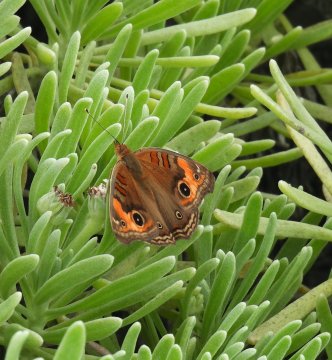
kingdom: Animalia
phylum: Arthropoda
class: Insecta
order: Lepidoptera
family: Nymphalidae
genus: Junonia
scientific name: Junonia lavinia
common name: Tropical Buckeye
